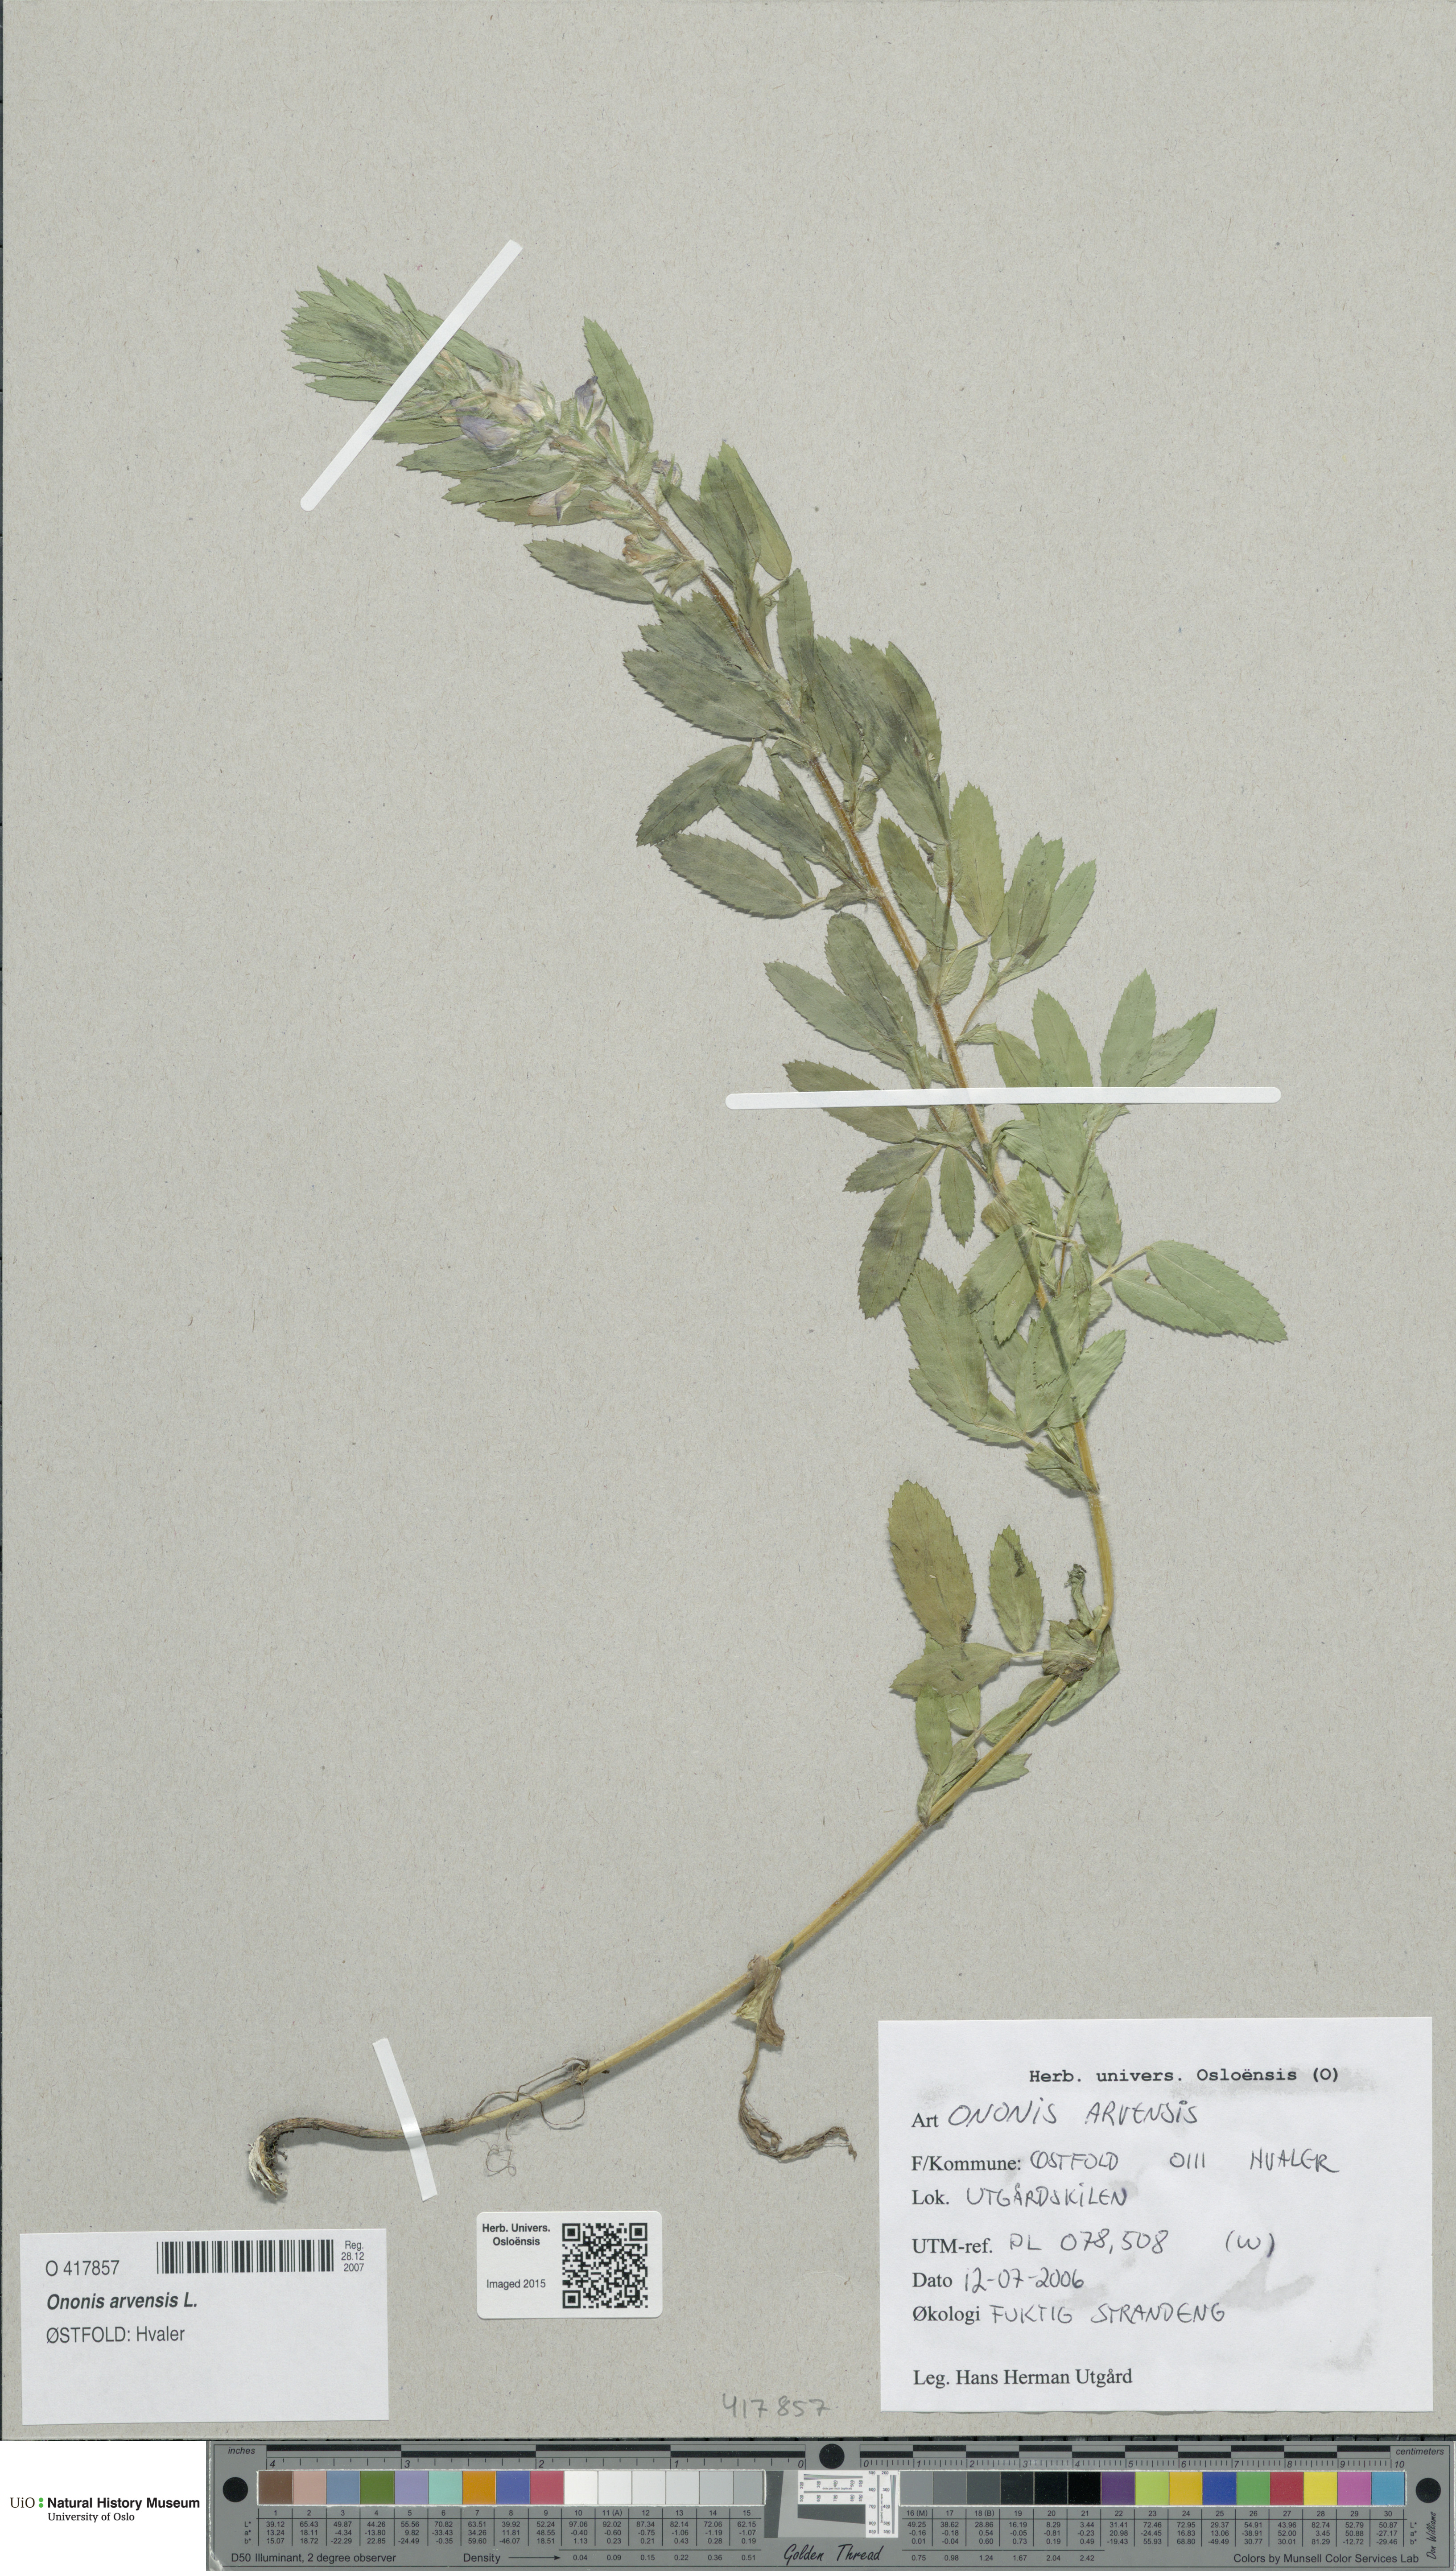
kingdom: Plantae
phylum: Tracheophyta
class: Magnoliopsida
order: Fabales
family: Fabaceae
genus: Ononis
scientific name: Ononis arvensis
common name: Field restharrow
